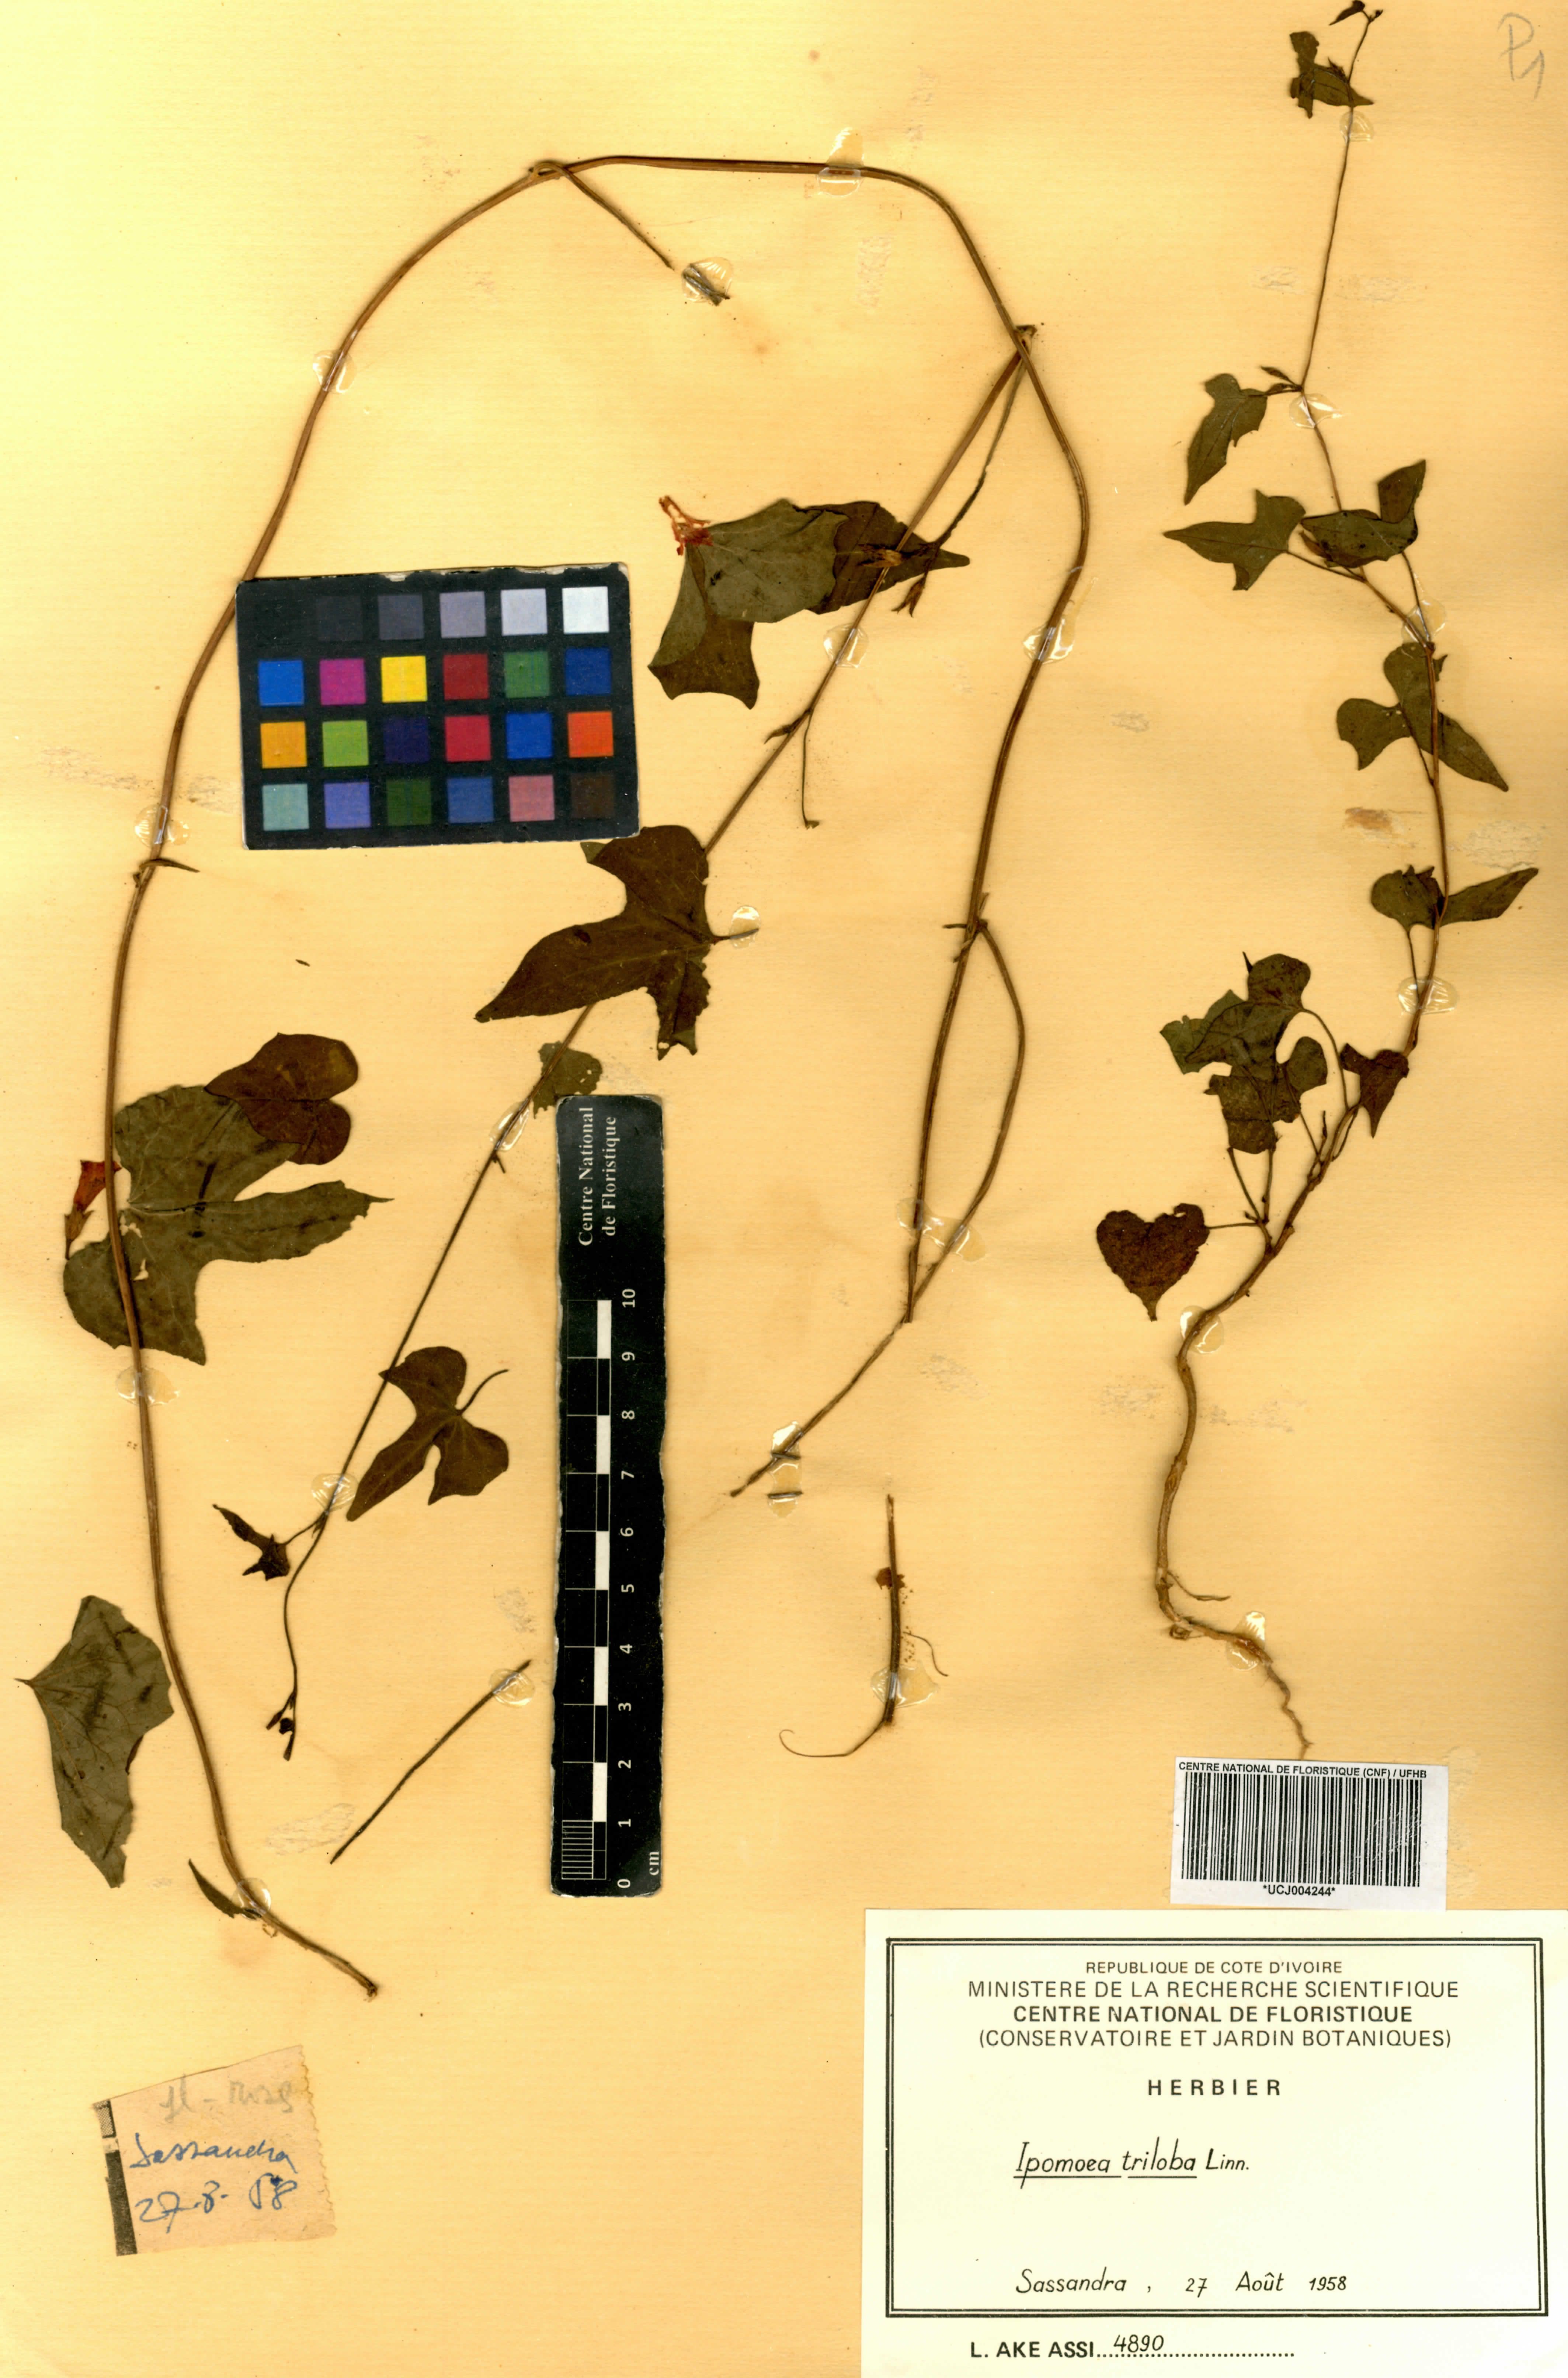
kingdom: Plantae
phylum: Tracheophyta
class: Magnoliopsida
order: Solanales
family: Convolvulaceae
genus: Ipomoea
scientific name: Ipomoea triloba
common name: Little-bell
